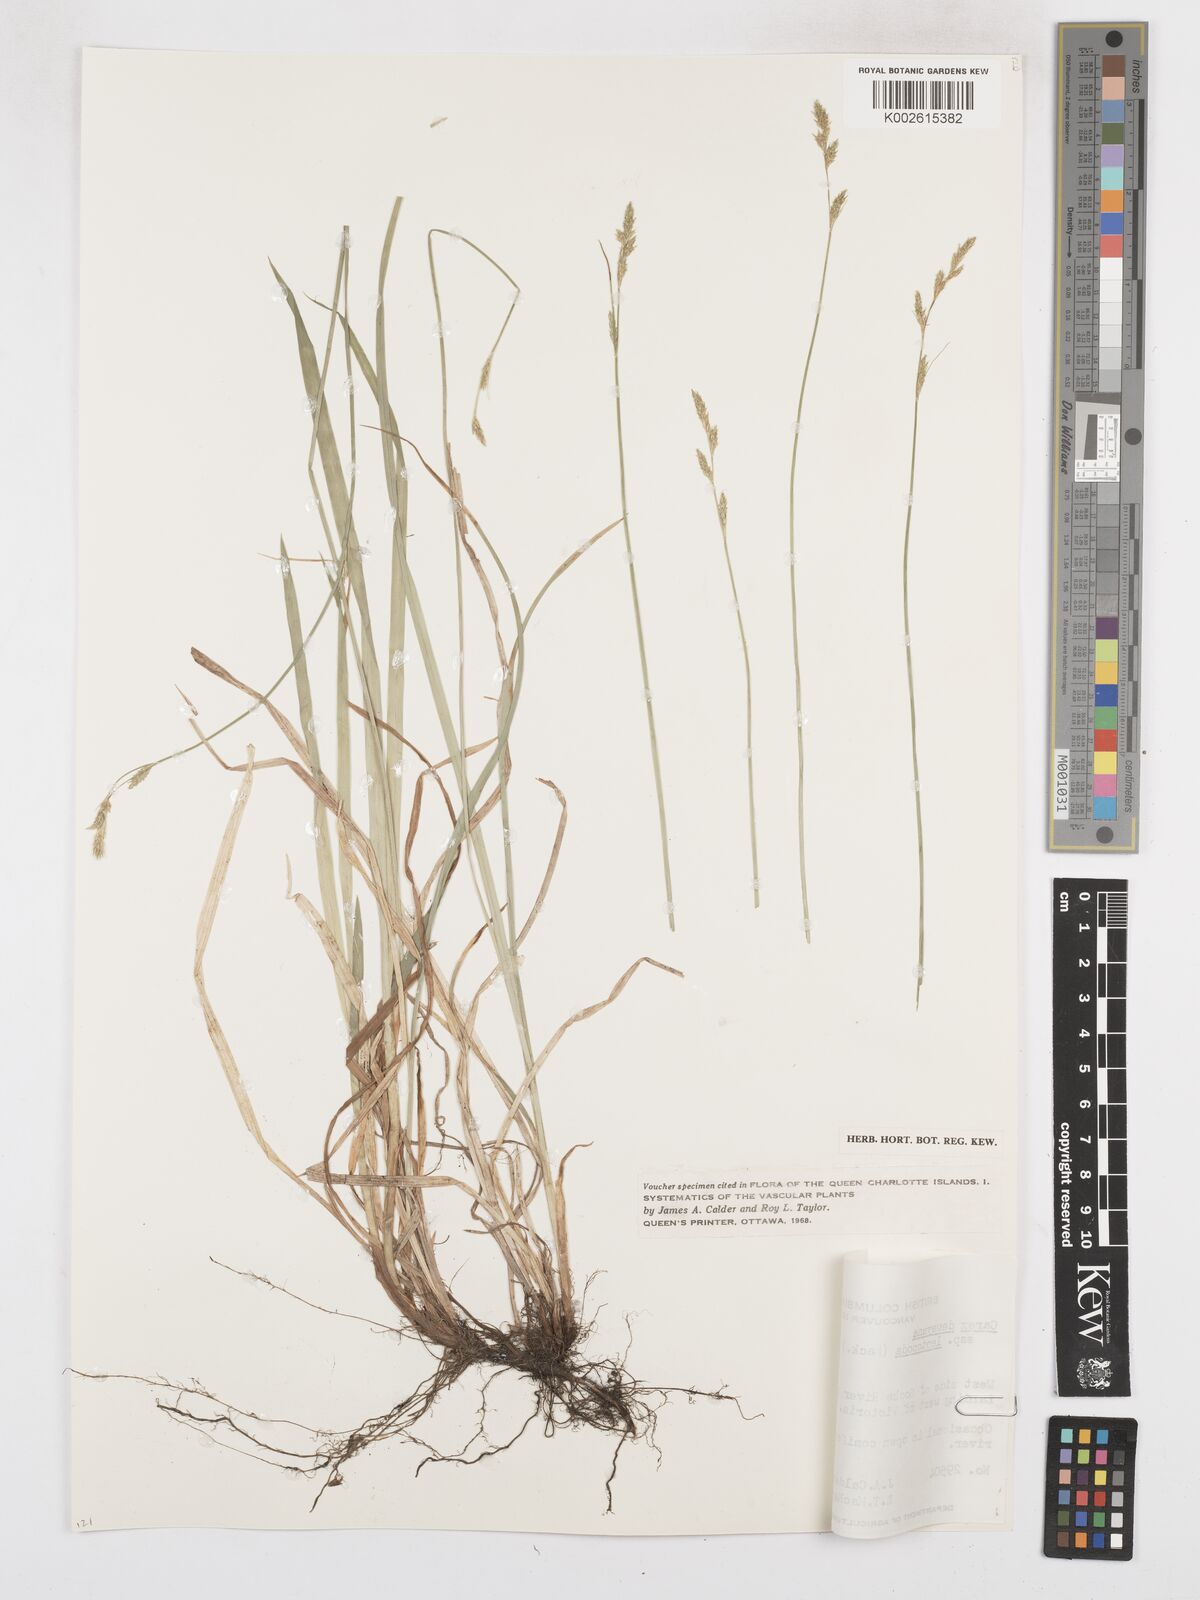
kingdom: Plantae
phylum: Tracheophyta
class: Liliopsida
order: Poales
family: Cyperaceae
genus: Carex
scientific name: Carex leptopoda
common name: Short-scale sedge
